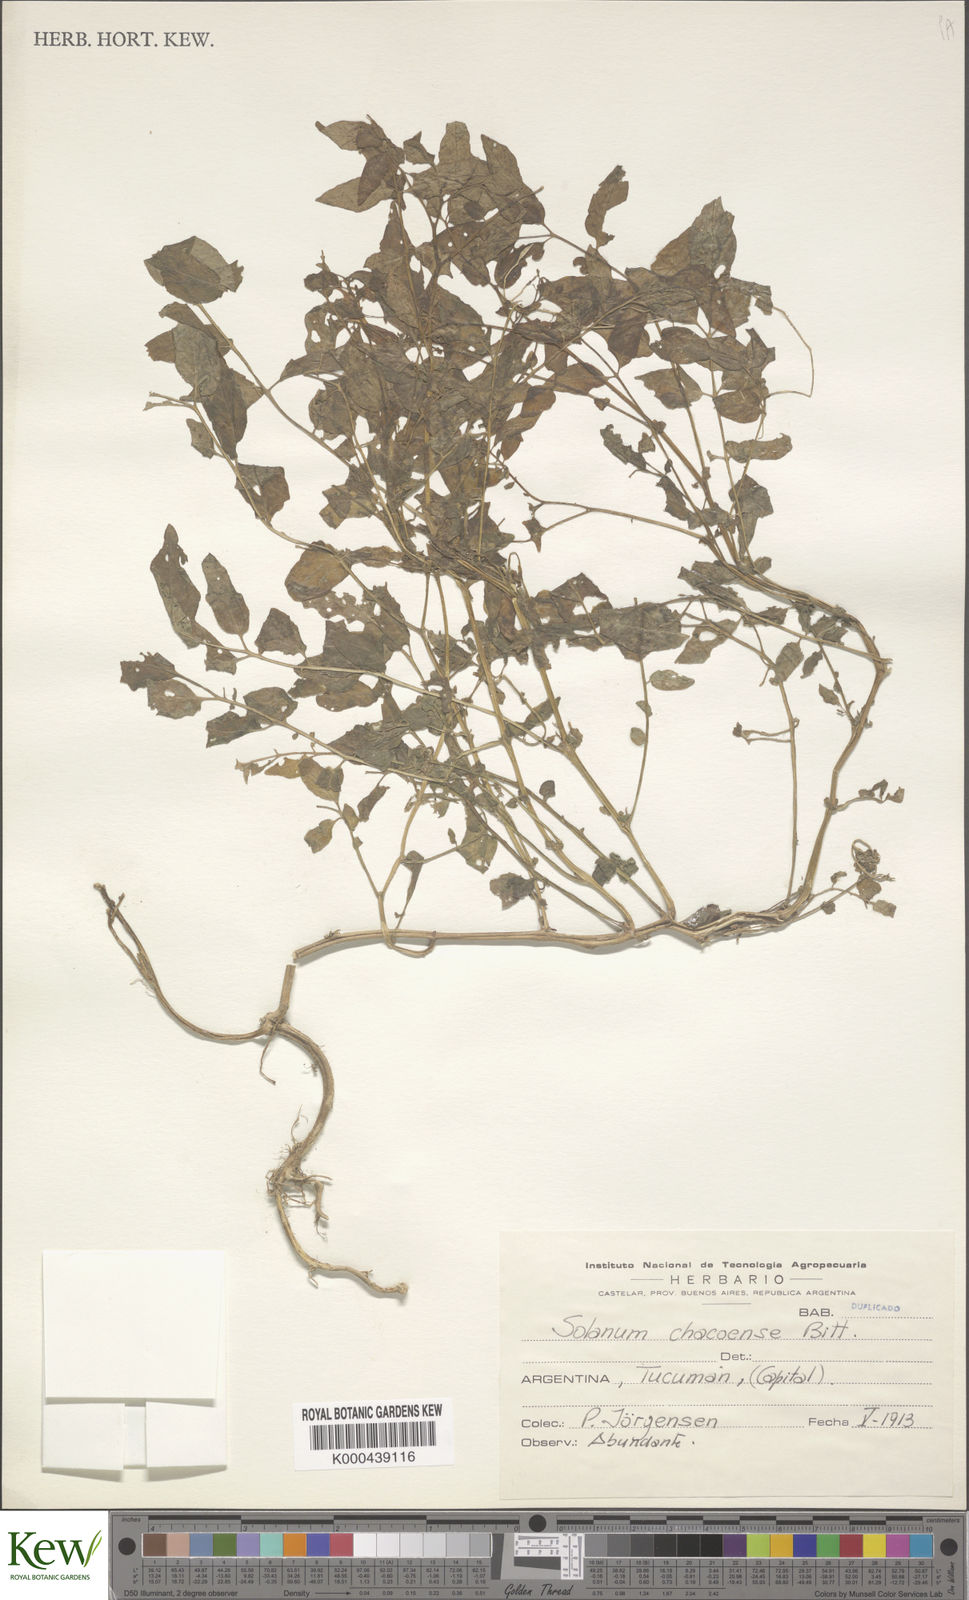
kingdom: Plantae
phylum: Tracheophyta
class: Magnoliopsida
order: Solanales
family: Solanaceae
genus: Solanum
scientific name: Solanum chacoense
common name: Chaco potato
